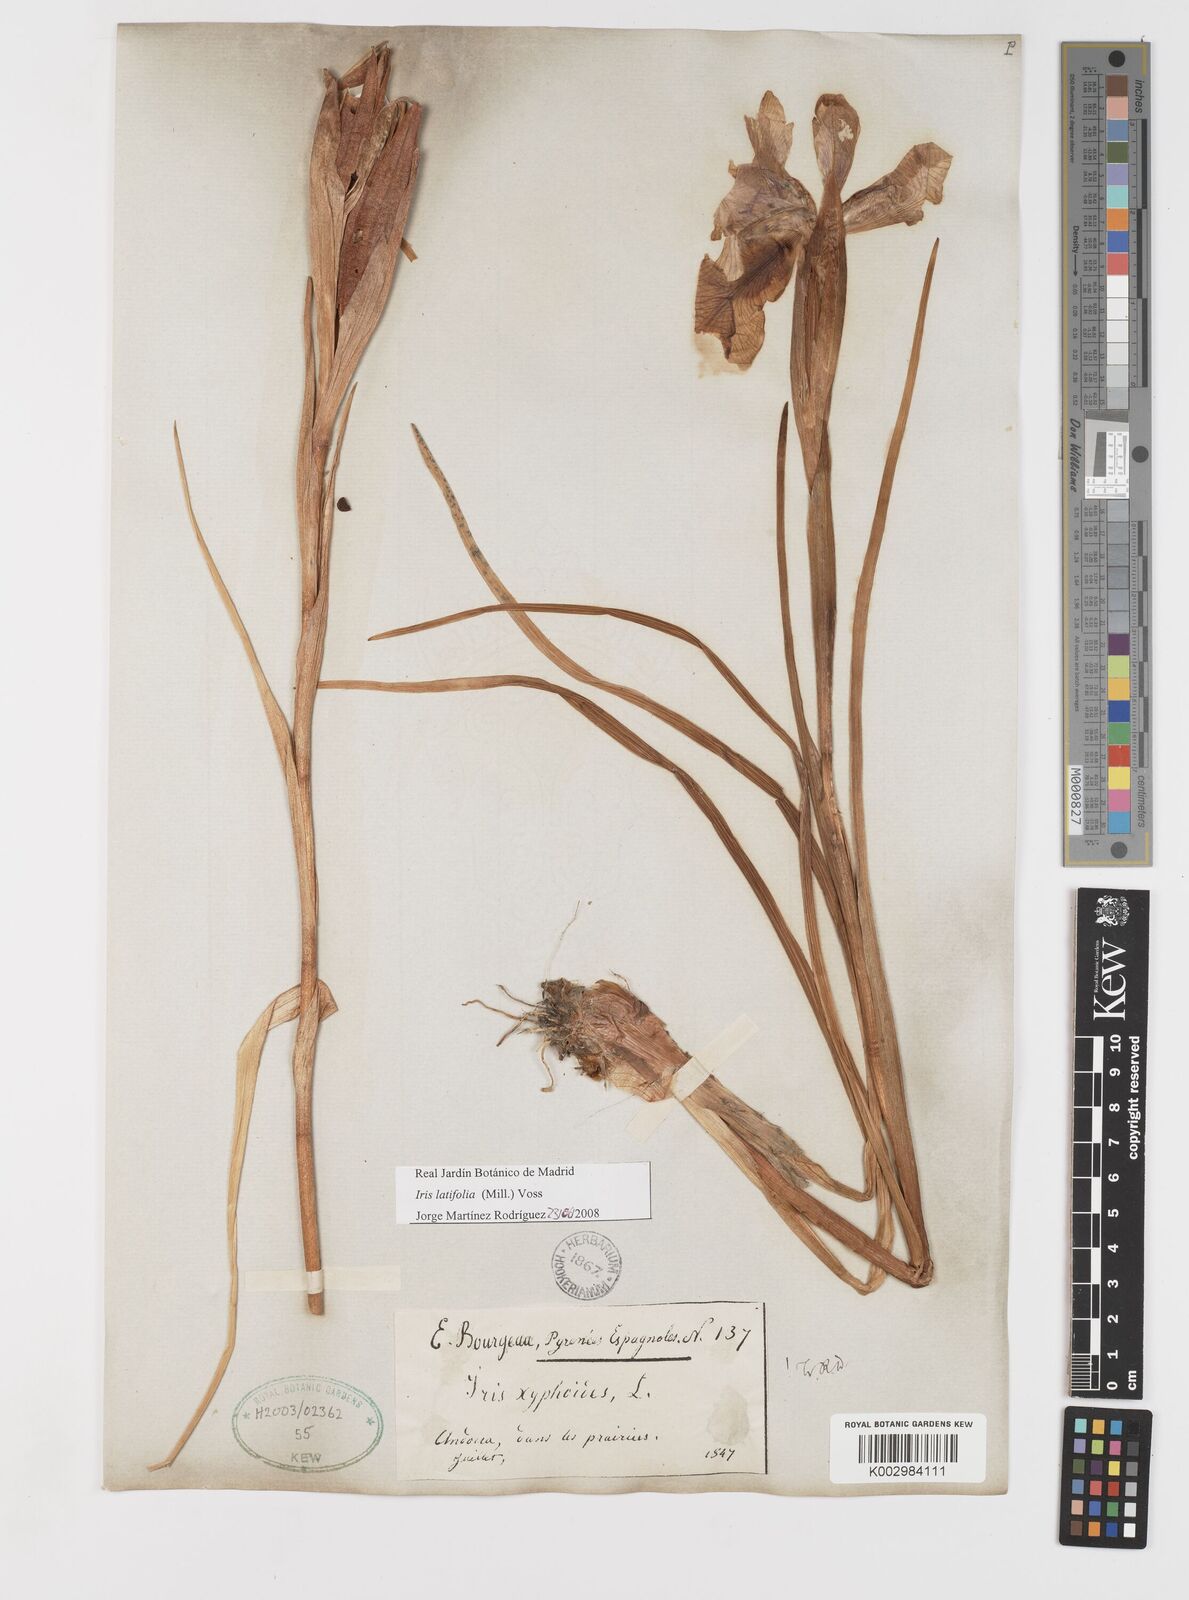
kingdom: Plantae
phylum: Tracheophyta
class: Liliopsida
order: Asparagales
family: Iridaceae
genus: Iris
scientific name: Iris jacquinii
